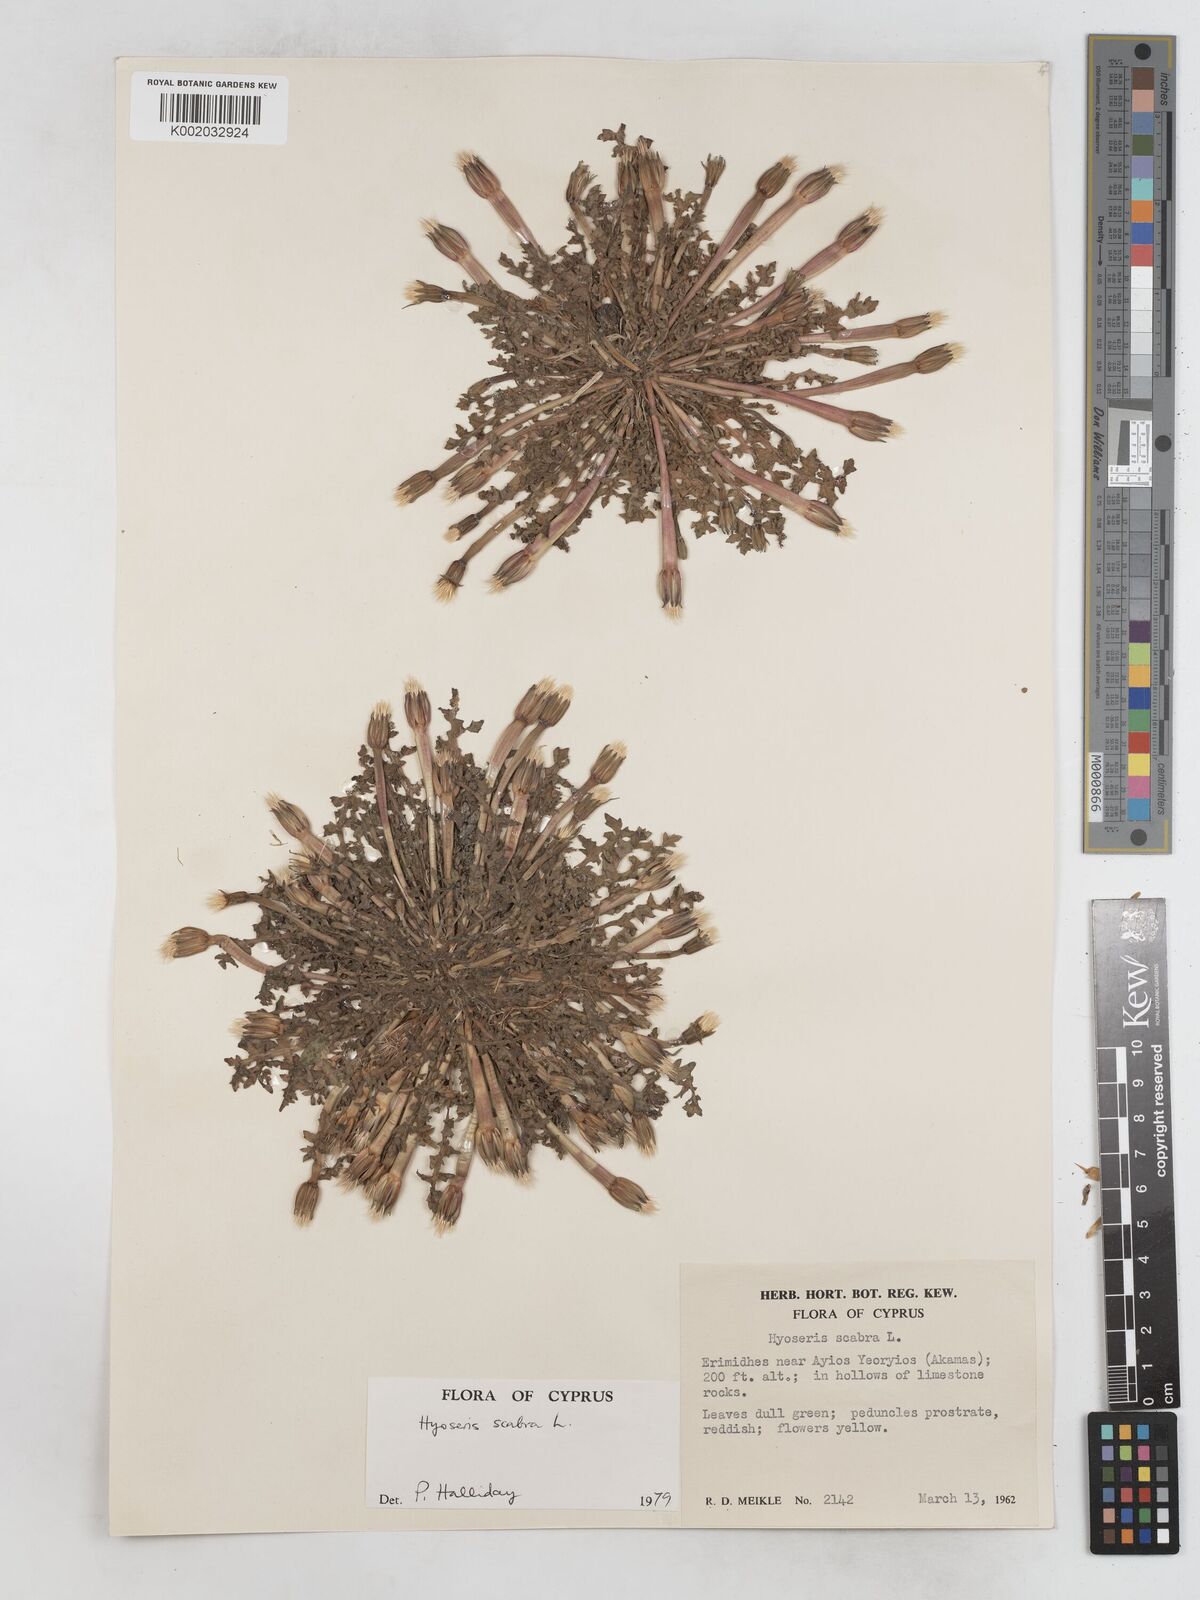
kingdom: Plantae
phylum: Tracheophyta
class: Magnoliopsida
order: Asterales
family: Asteraceae
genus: Hyoseris
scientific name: Hyoseris scabra
